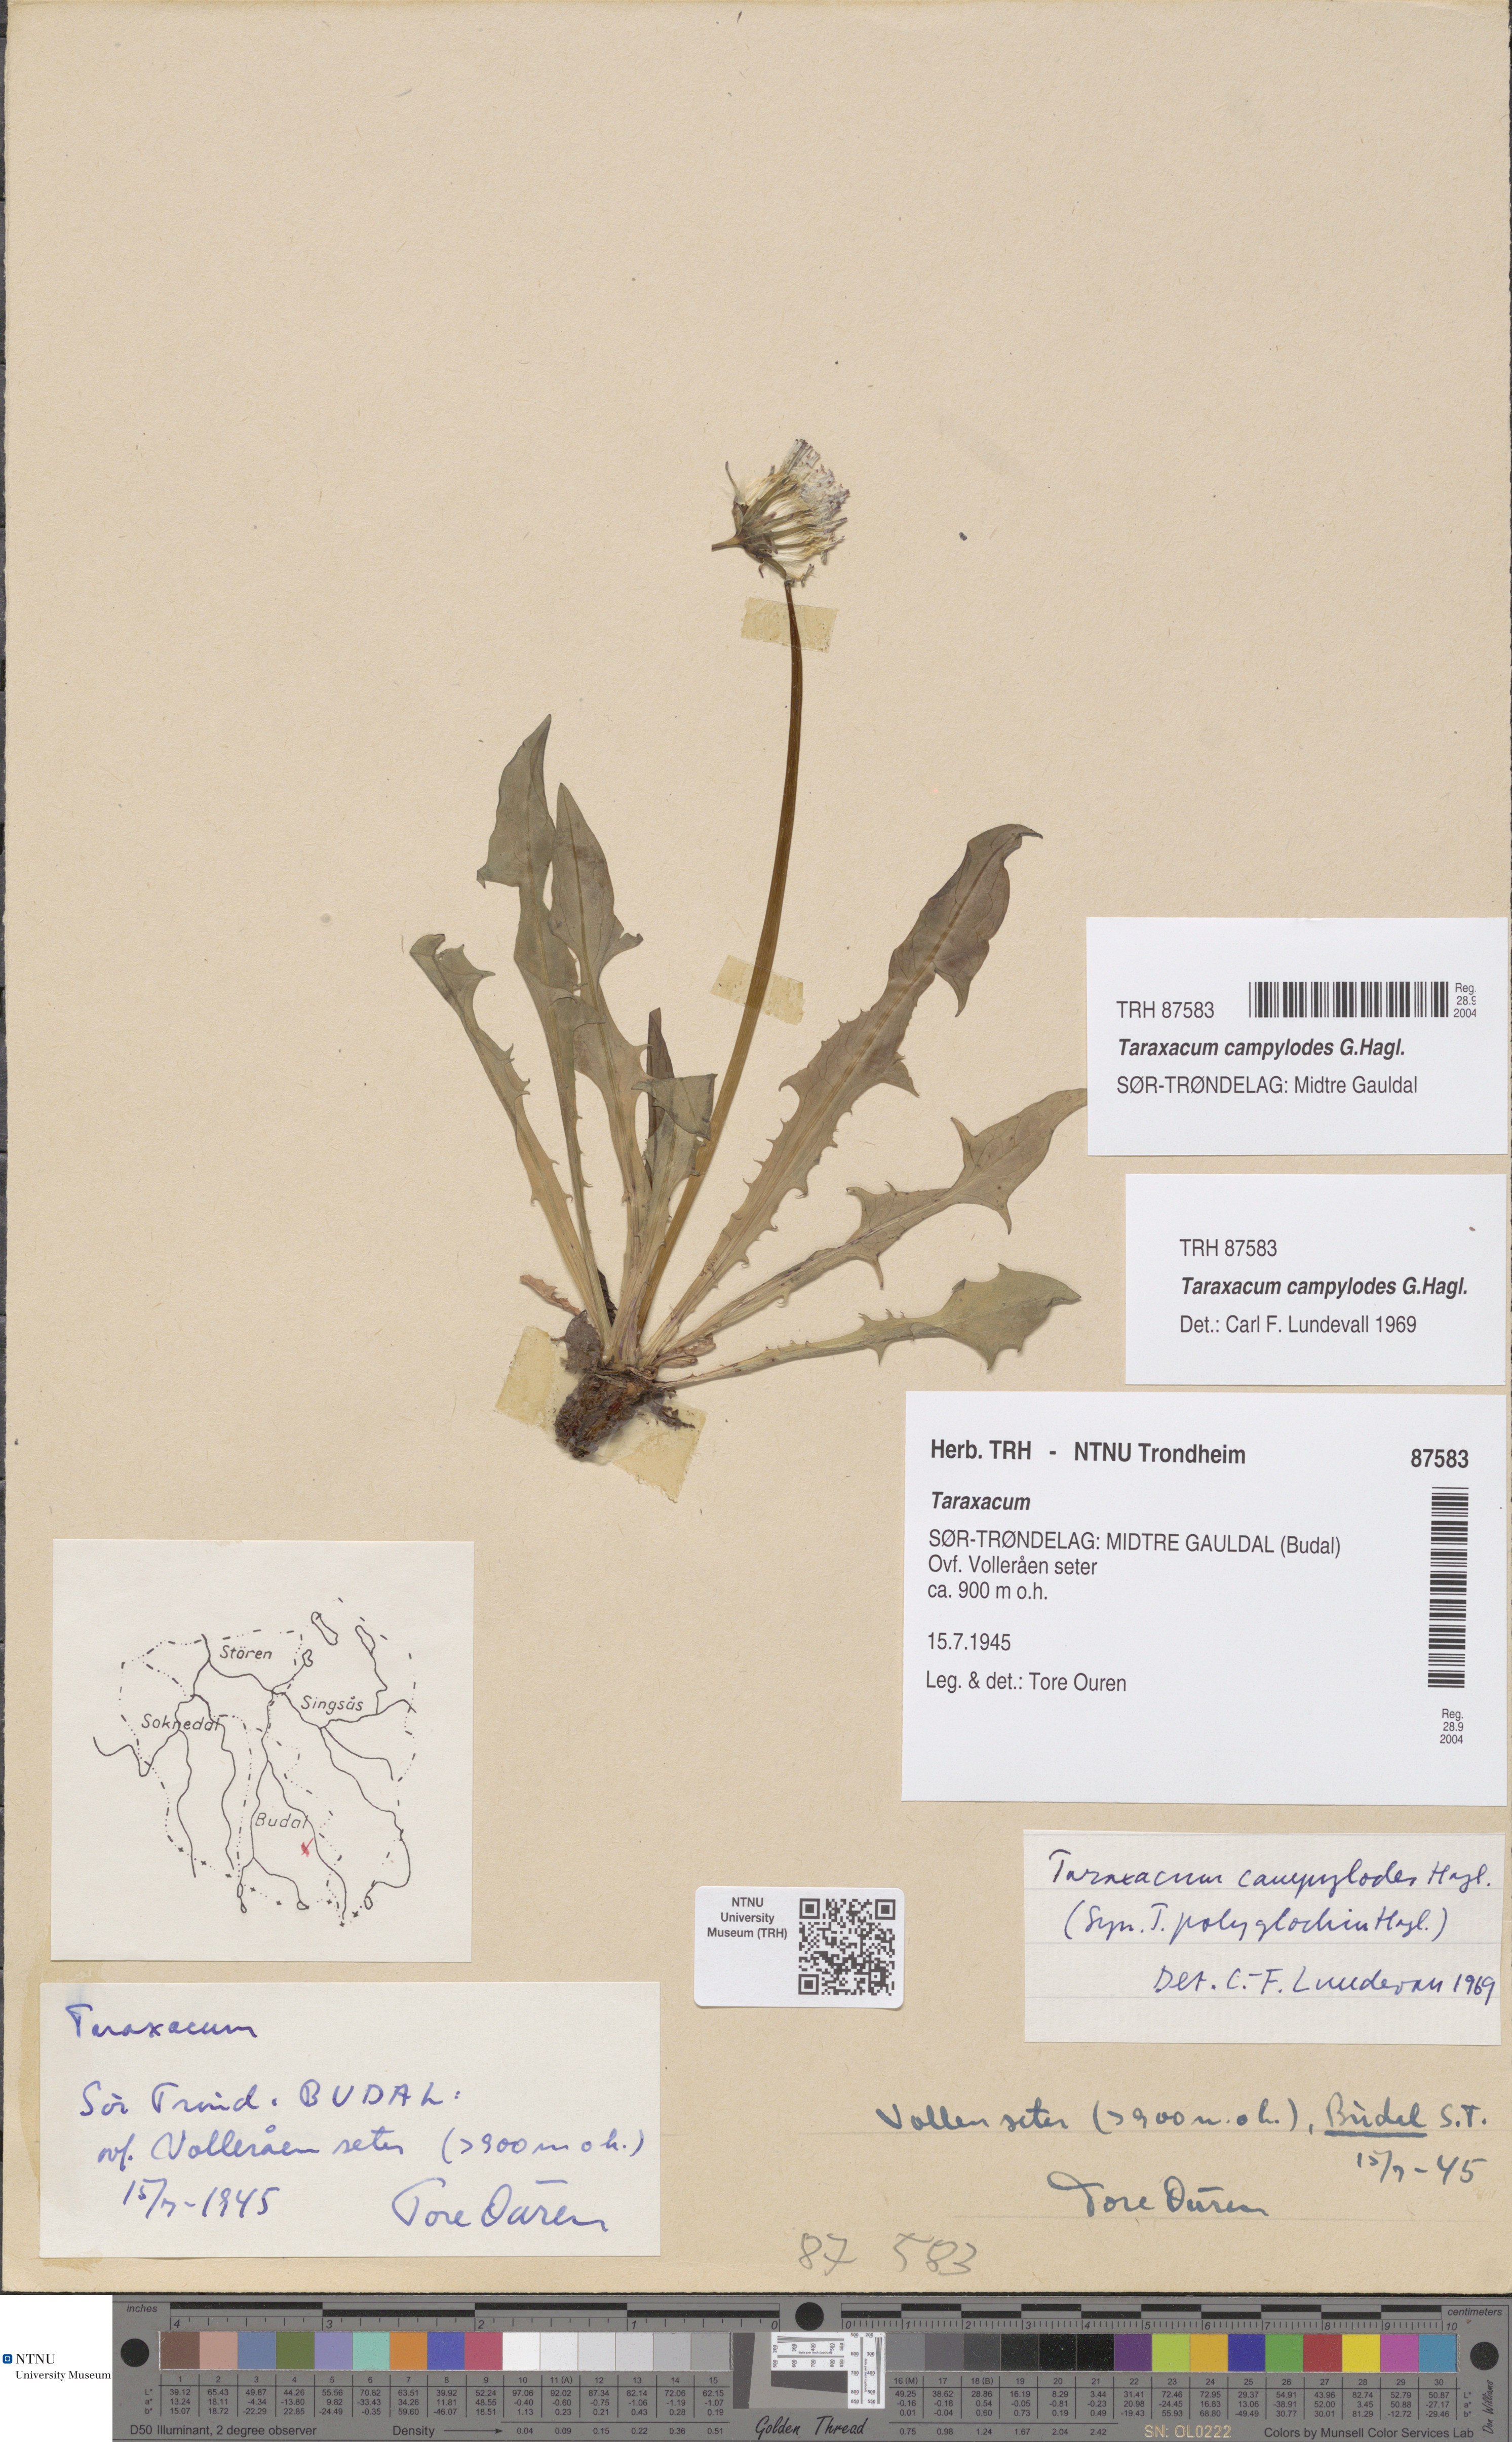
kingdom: Plantae
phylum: Tracheophyta
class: Magnoliopsida
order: Asterales
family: Asteraceae
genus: Taraxacum
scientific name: Taraxacum campylodes
